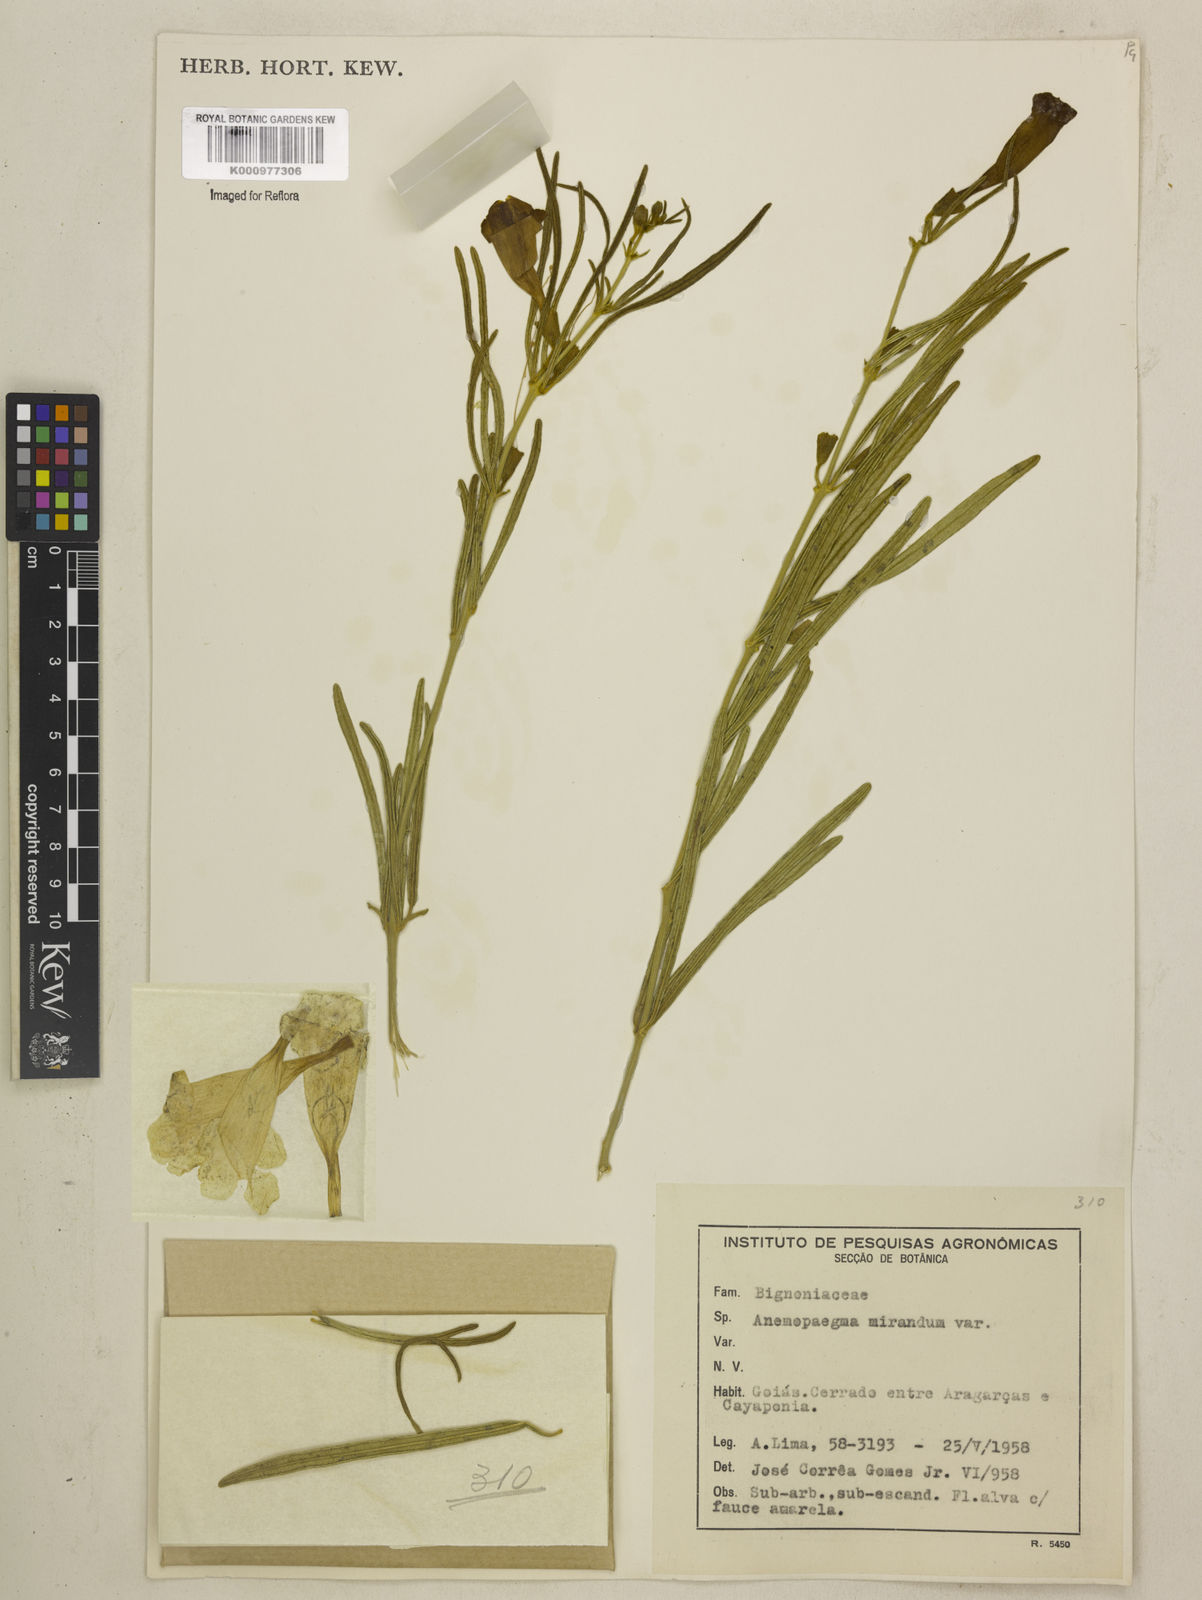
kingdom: Plantae
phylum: Tracheophyta
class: Magnoliopsida
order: Lamiales
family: Bignoniaceae
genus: Anemopaegma
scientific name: Anemopaegma arvense
